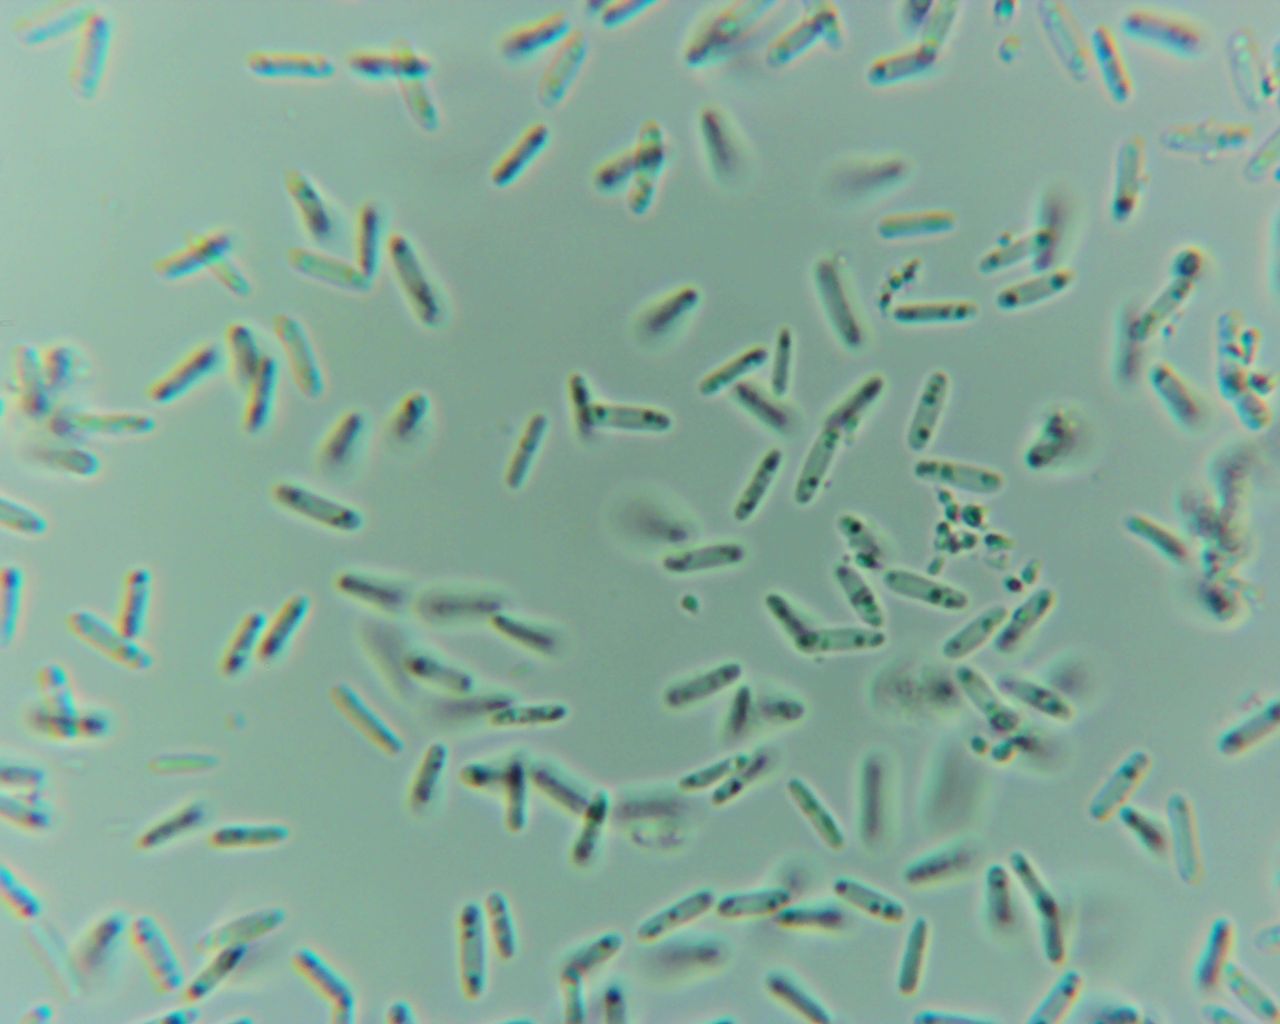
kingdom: Fungi
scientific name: Fungi
